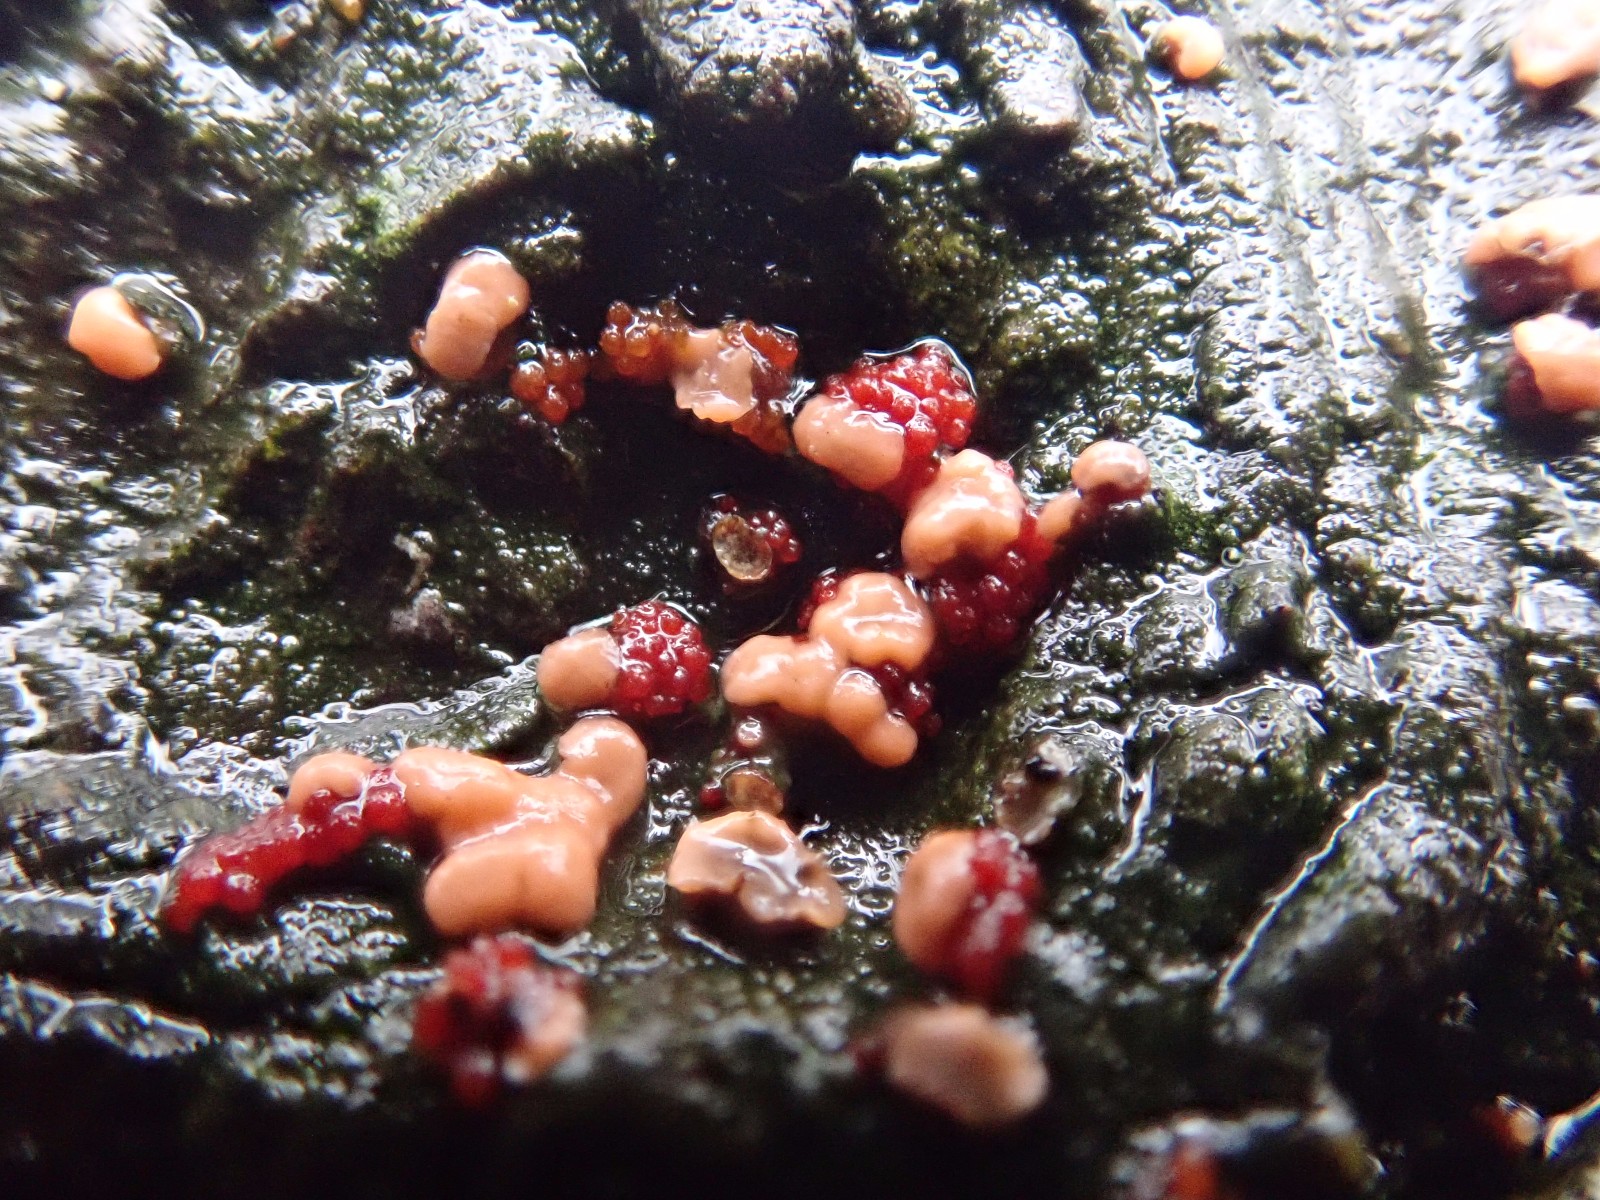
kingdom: Fungi
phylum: Ascomycota
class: Sordariomycetes
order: Hypocreales
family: Nectriaceae
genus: Nectria
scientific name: Nectria cinnabarina
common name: almindelig cinnobersvamp
